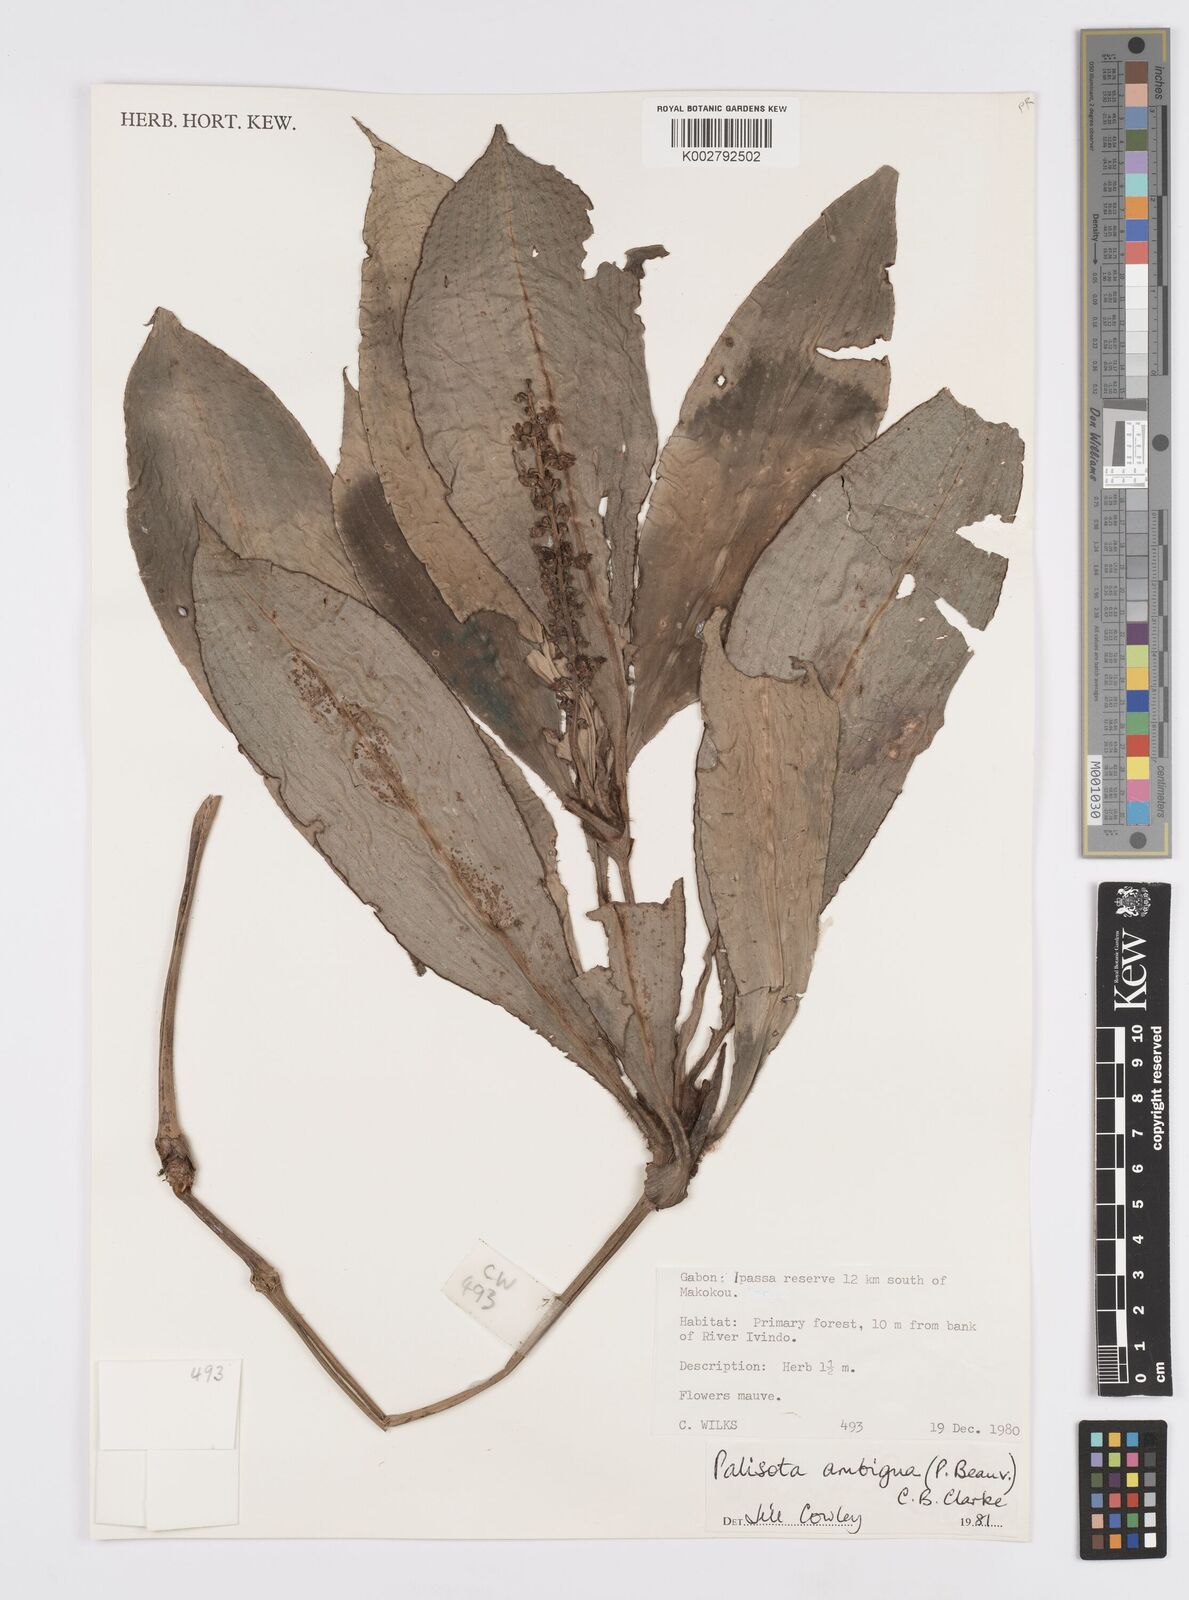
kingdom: Plantae
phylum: Tracheophyta
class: Liliopsida
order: Commelinales
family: Commelinaceae
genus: Palisota
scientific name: Palisota ambigua
